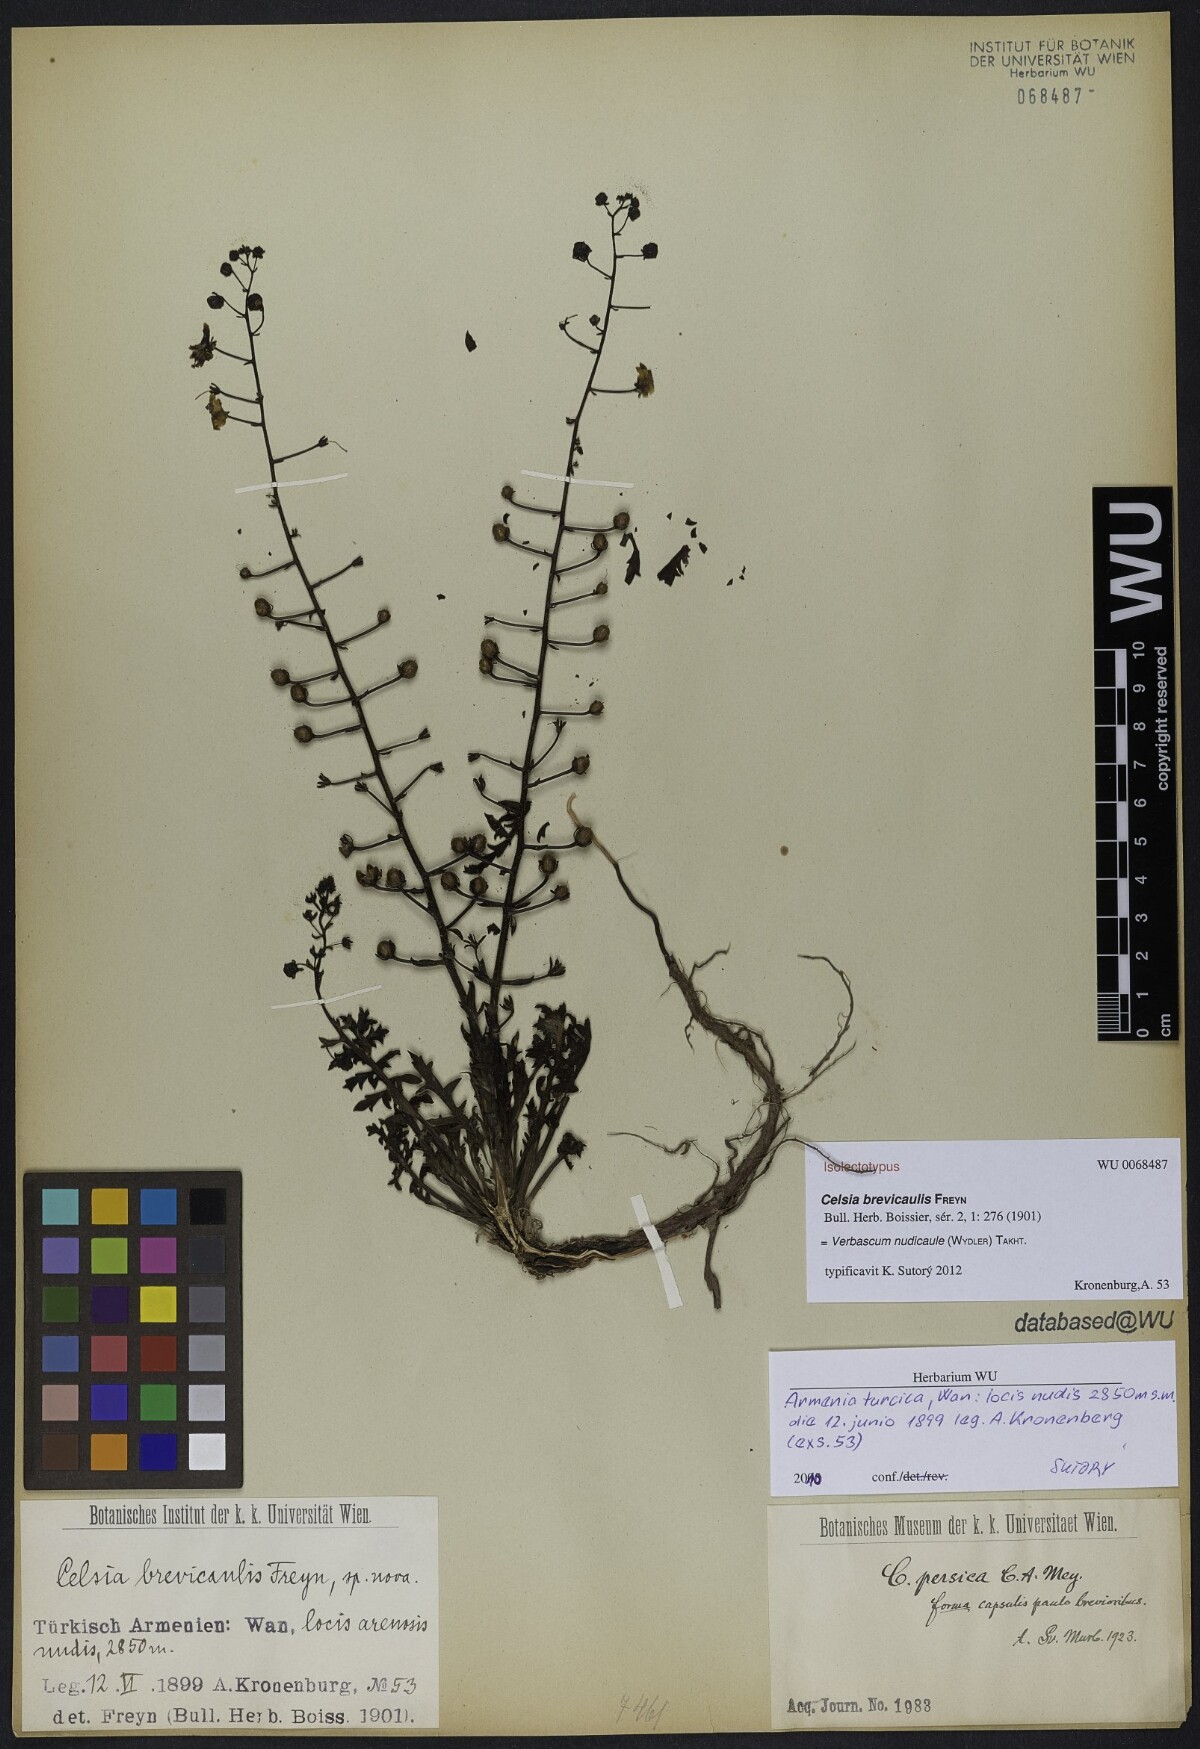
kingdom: Plantae
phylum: Tracheophyta
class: Magnoliopsida
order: Lamiales
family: Scrophulariaceae
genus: Verbascum
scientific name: Verbascum nudicaule
